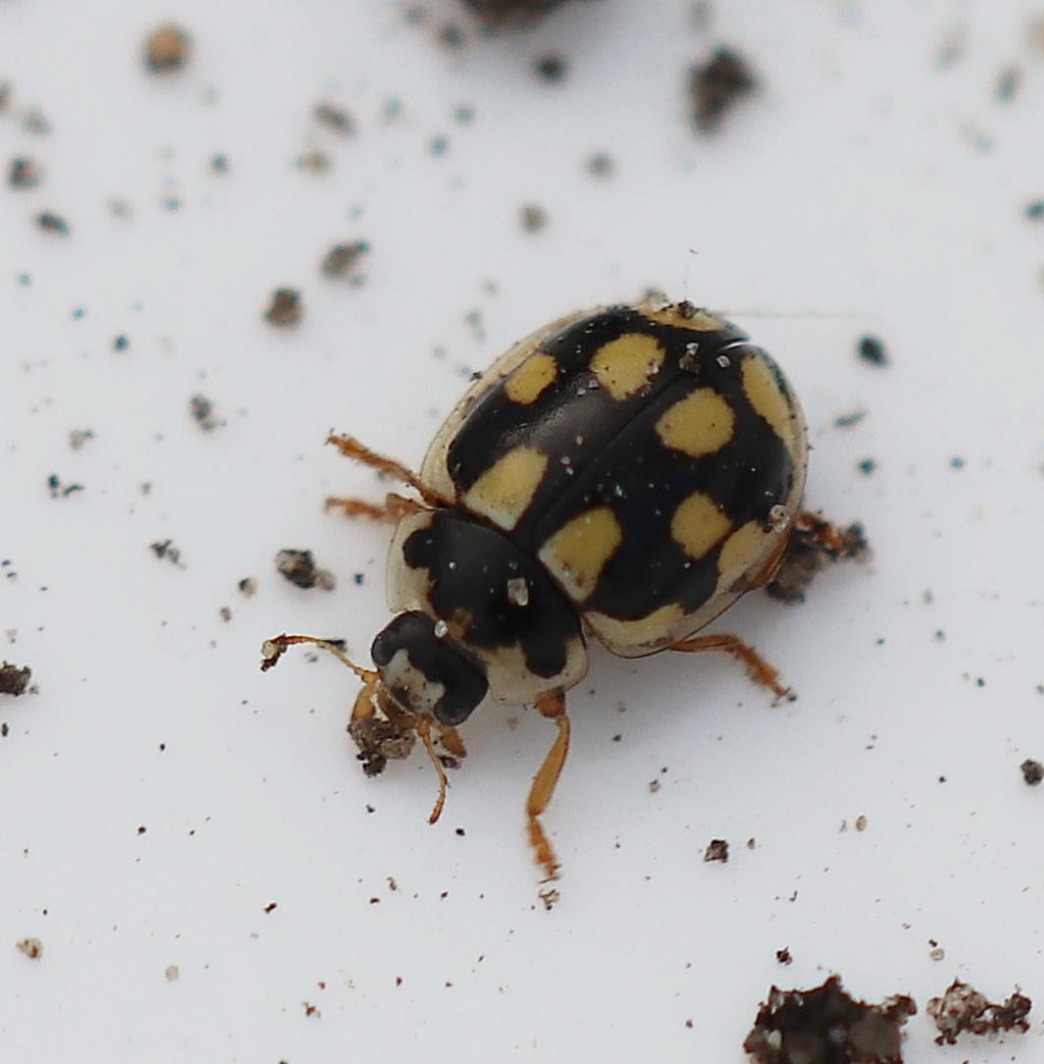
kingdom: Animalia
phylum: Arthropoda
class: Insecta
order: Coleoptera
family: Coccinellidae
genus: Propylaea
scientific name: Propylaea quatuordecimpunctata
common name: Skakbræt
